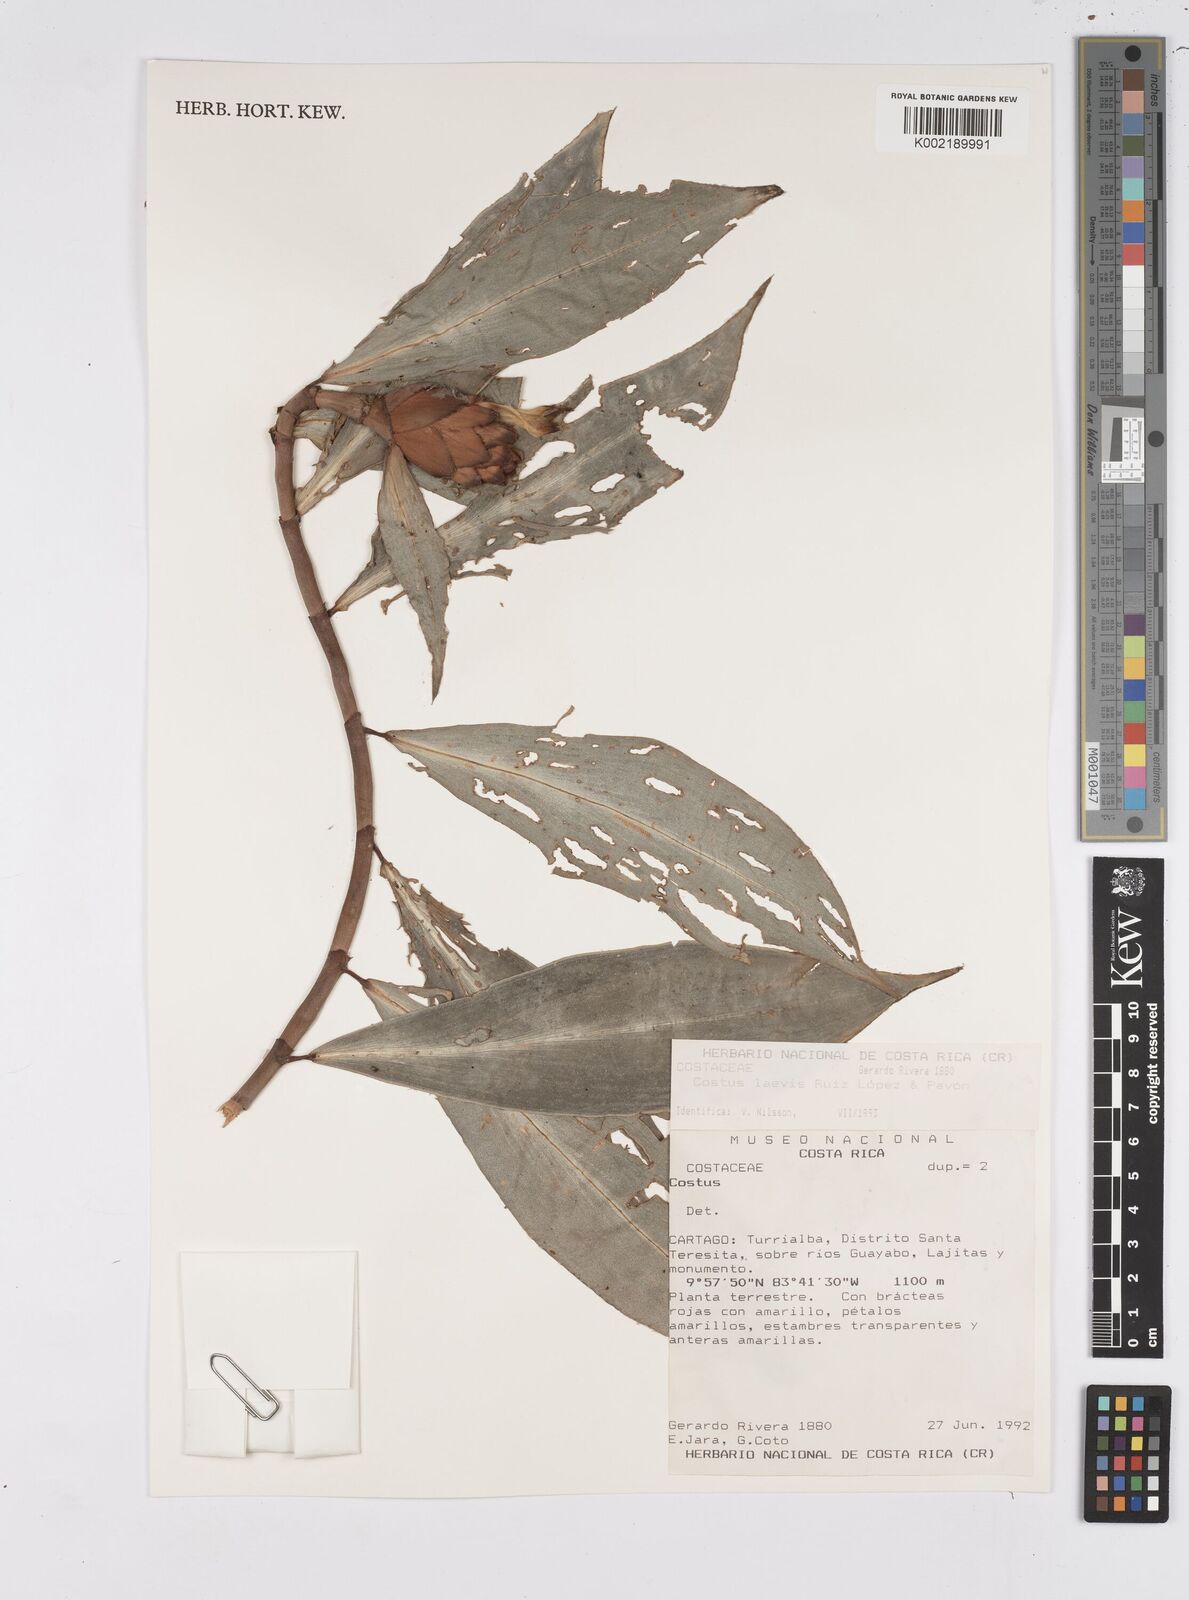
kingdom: Plantae
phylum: Tracheophyta
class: Liliopsida
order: Zingiberales
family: Costaceae
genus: Costus
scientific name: Costus laevis
